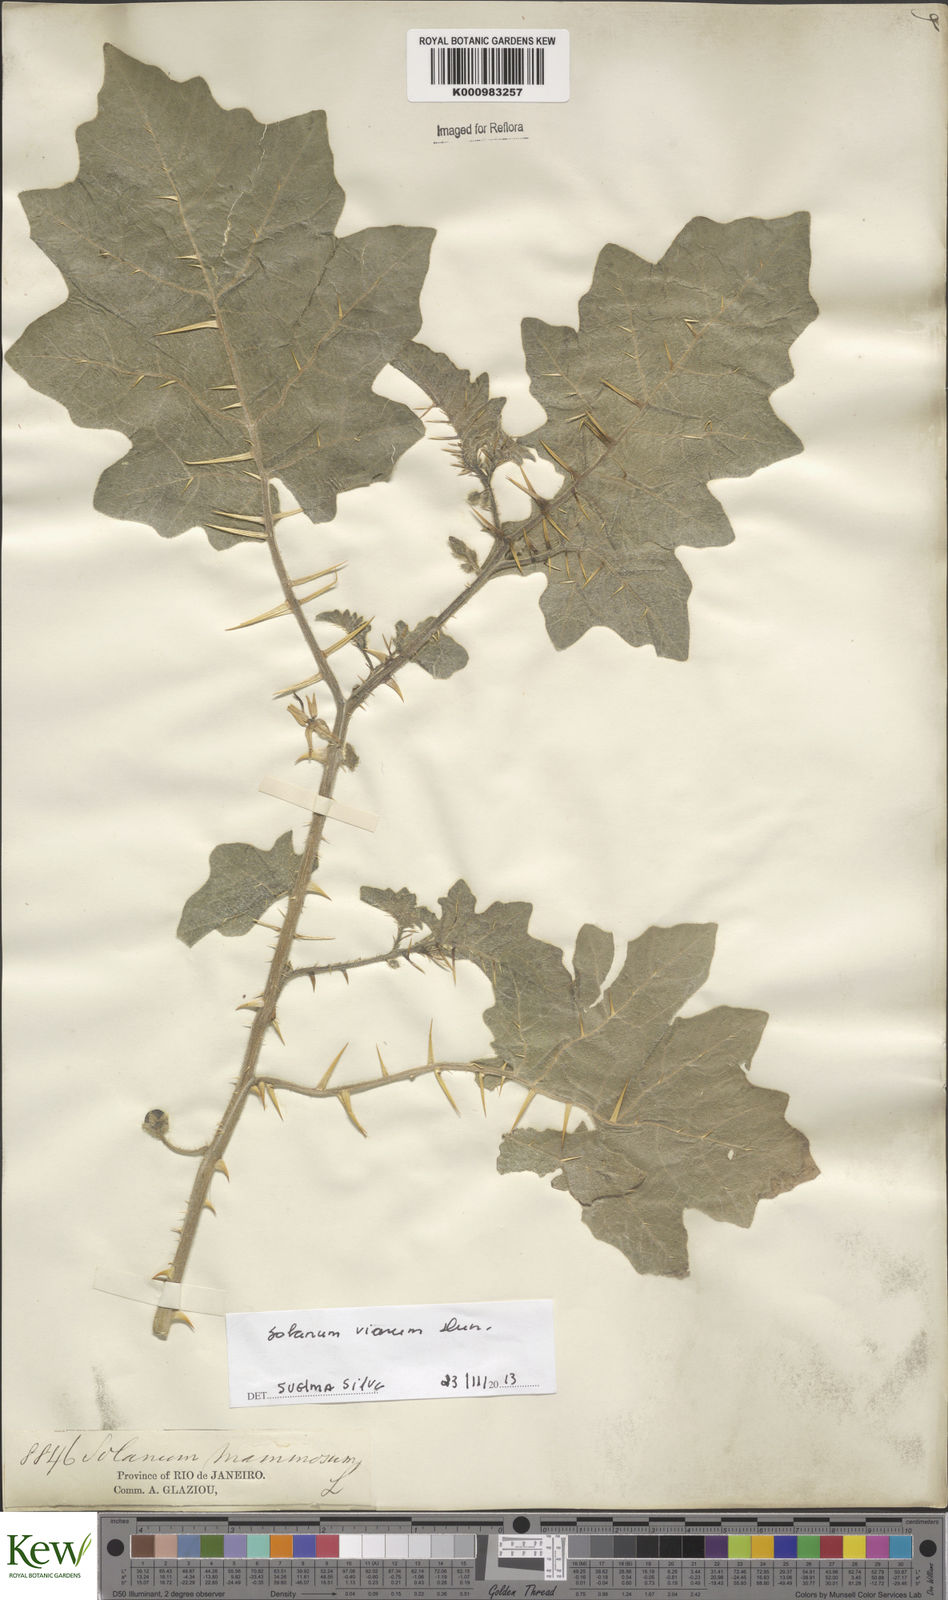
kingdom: Plantae
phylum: Tracheophyta
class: Magnoliopsida
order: Solanales
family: Solanaceae
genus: Solanum
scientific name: Solanum viarum
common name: Tropical soda apple
